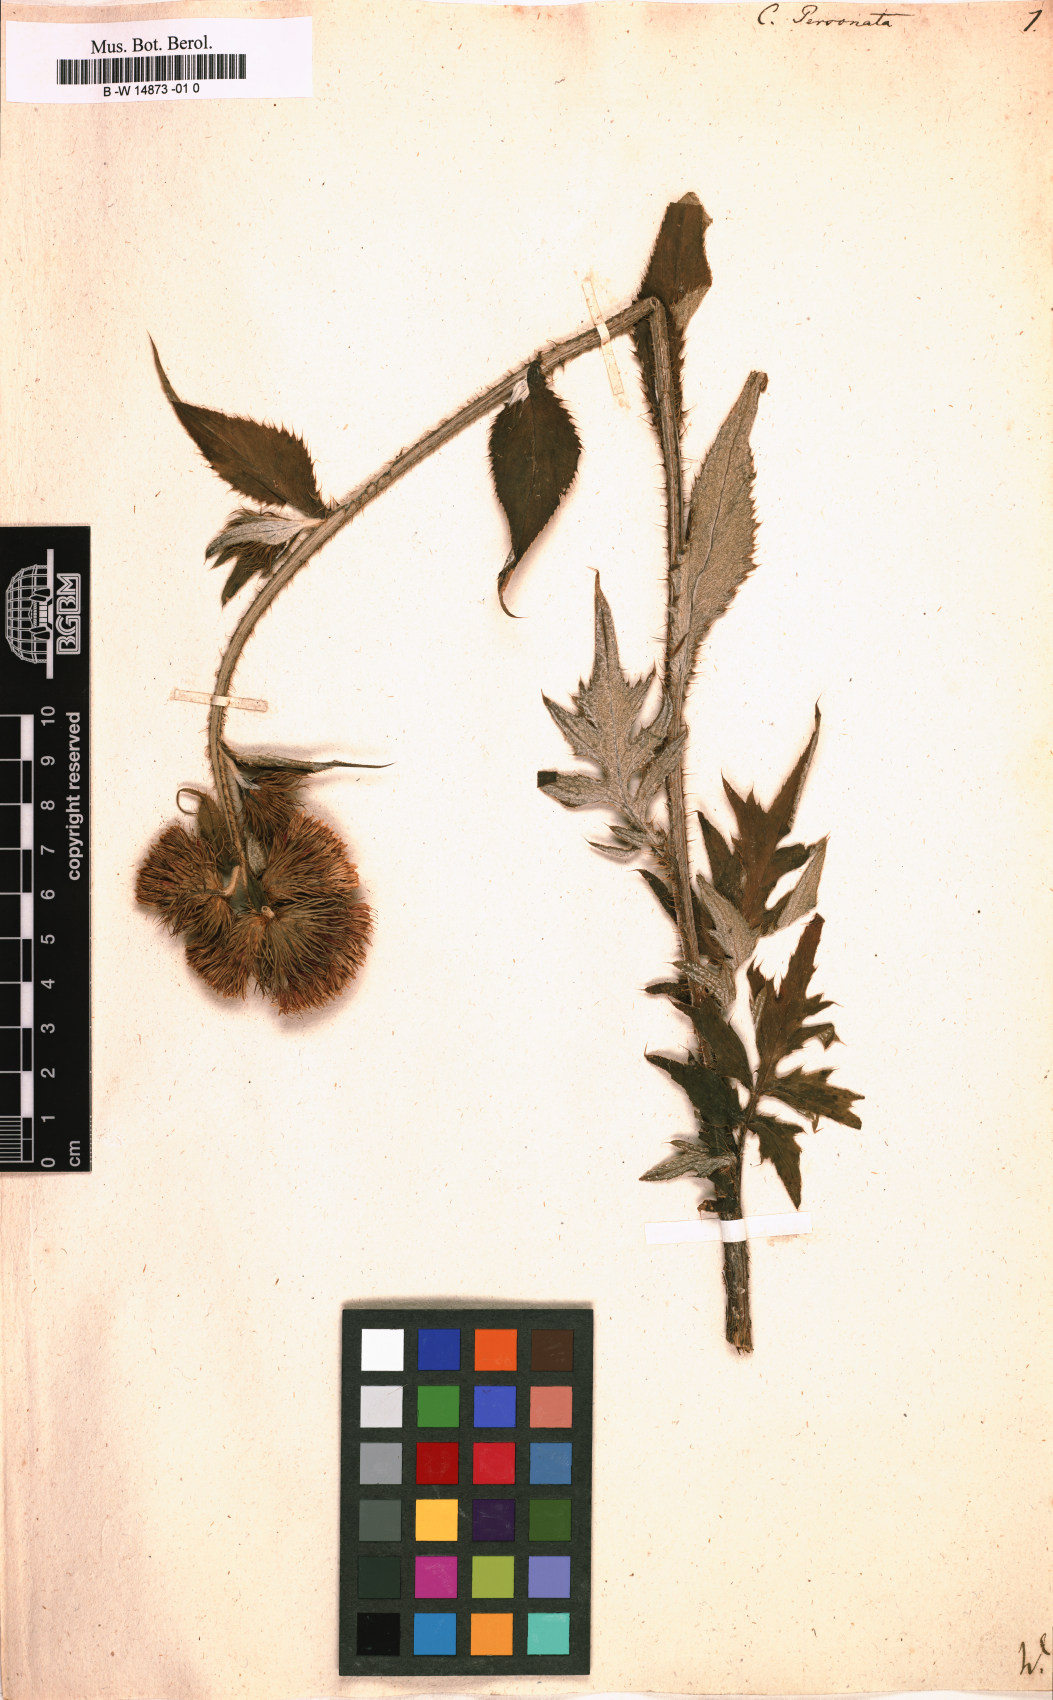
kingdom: Plantae
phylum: Tracheophyta
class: Magnoliopsida
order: Asterales
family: Asteraceae
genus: Carduus
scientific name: Carduus personata
